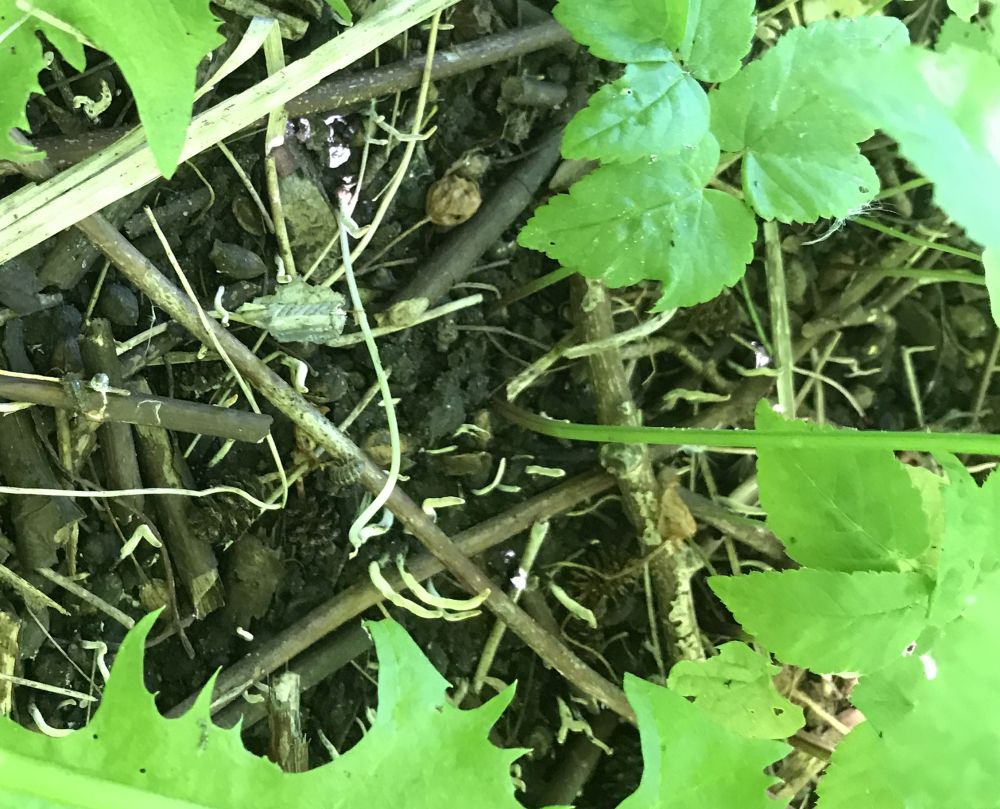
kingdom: Fungi
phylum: Ascomycota
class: Sordariomycetes
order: Xylariales
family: Xylariaceae
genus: Xylaria
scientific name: Xylaria oxyacanthae
